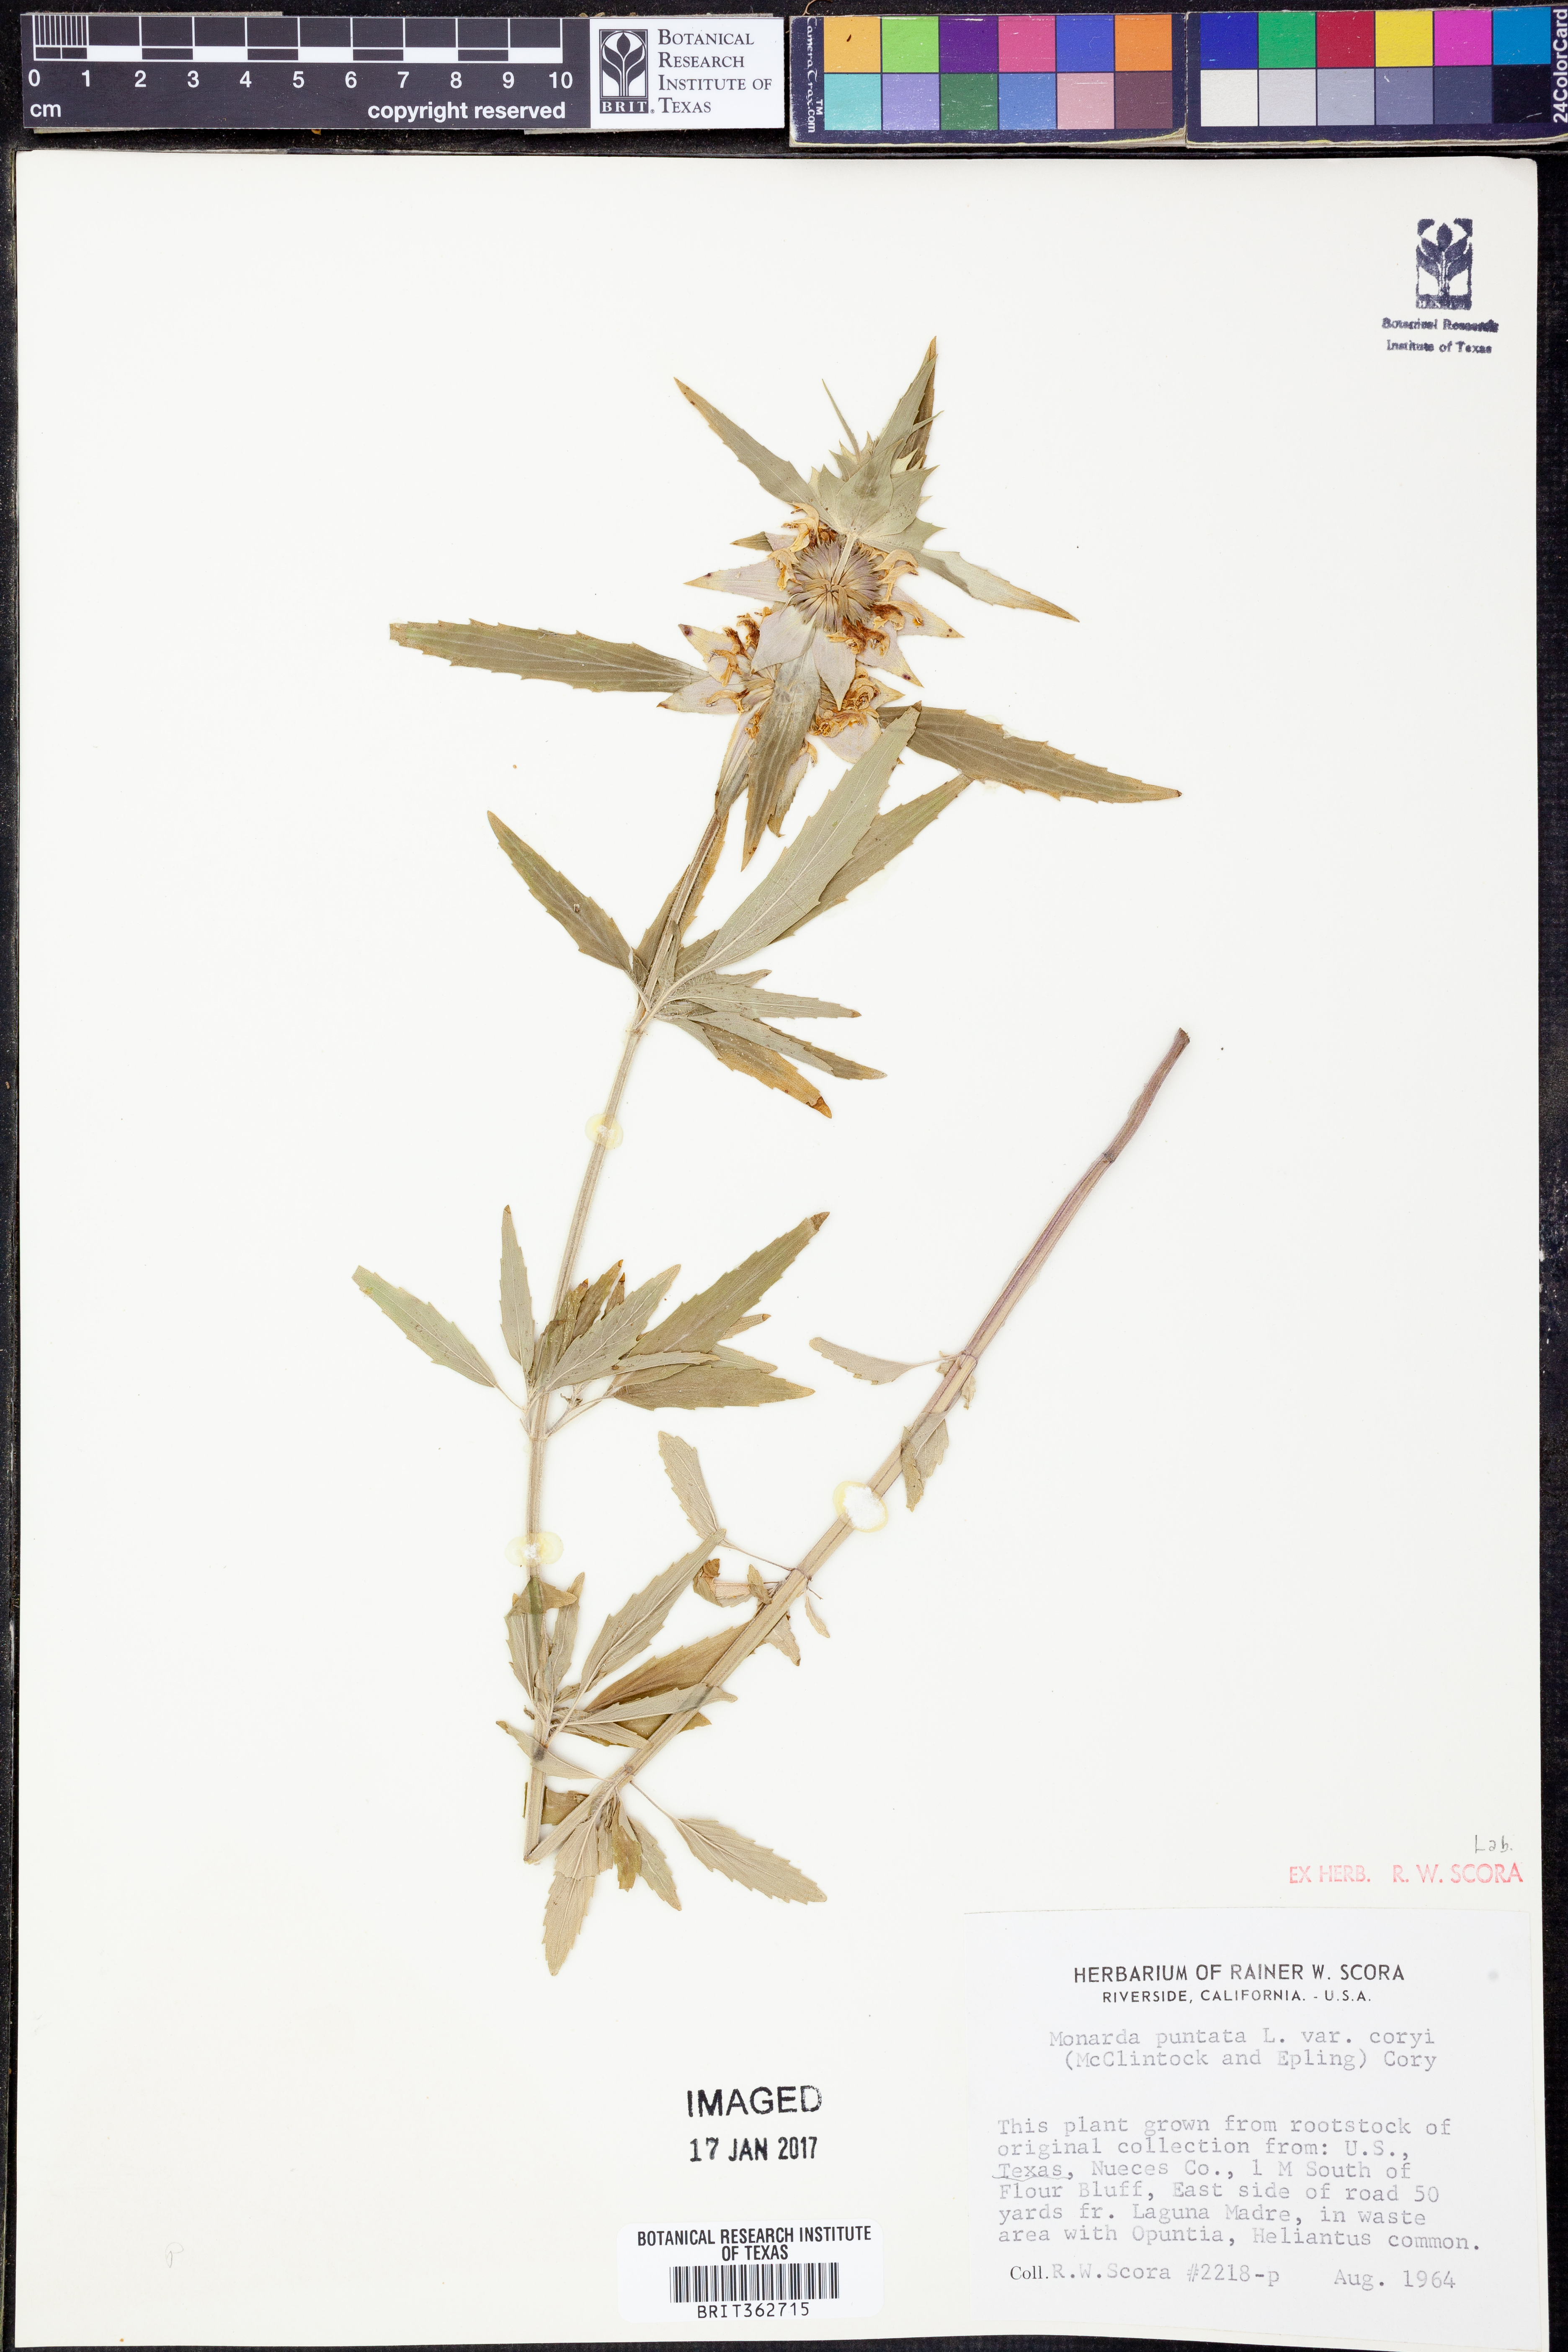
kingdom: Plantae
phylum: Tracheophyta
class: Magnoliopsida
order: Lamiales
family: Lamiaceae
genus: Monarda
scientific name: Monarda punctata
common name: Dotted monarda
